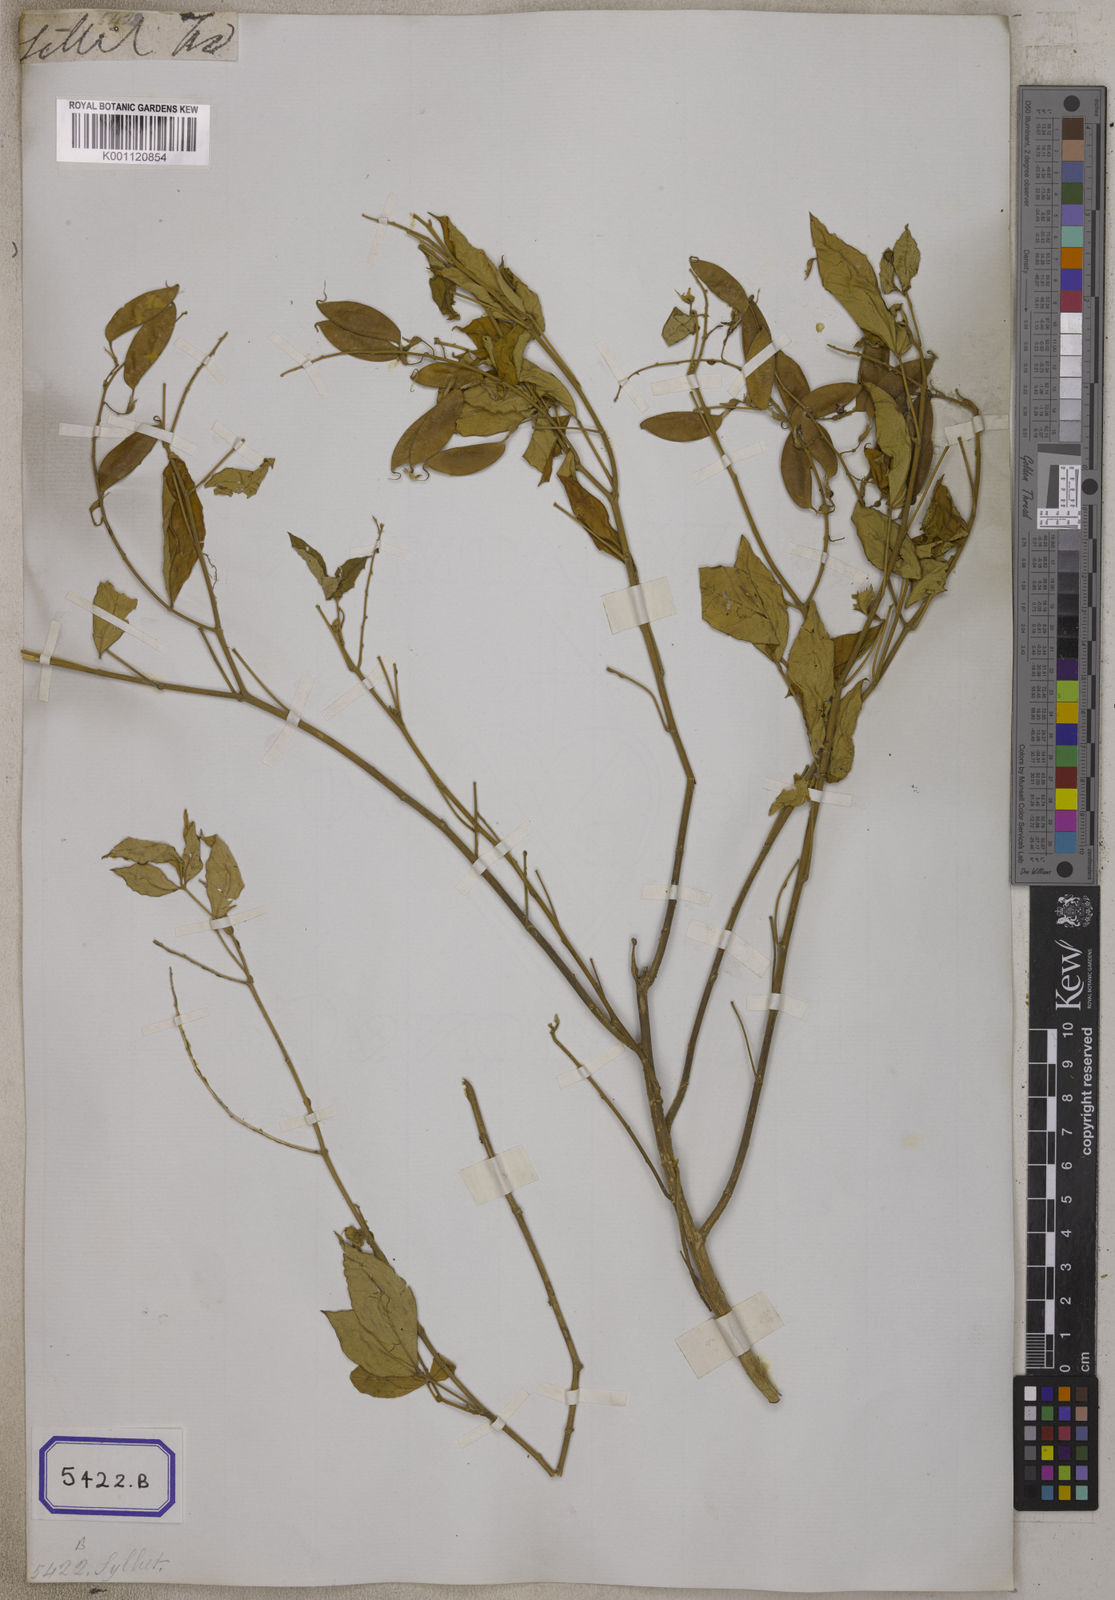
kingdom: Plantae
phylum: Tracheophyta
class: Magnoliopsida
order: Fabales
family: Fabaceae
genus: Crotalaria
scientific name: Crotalaria
